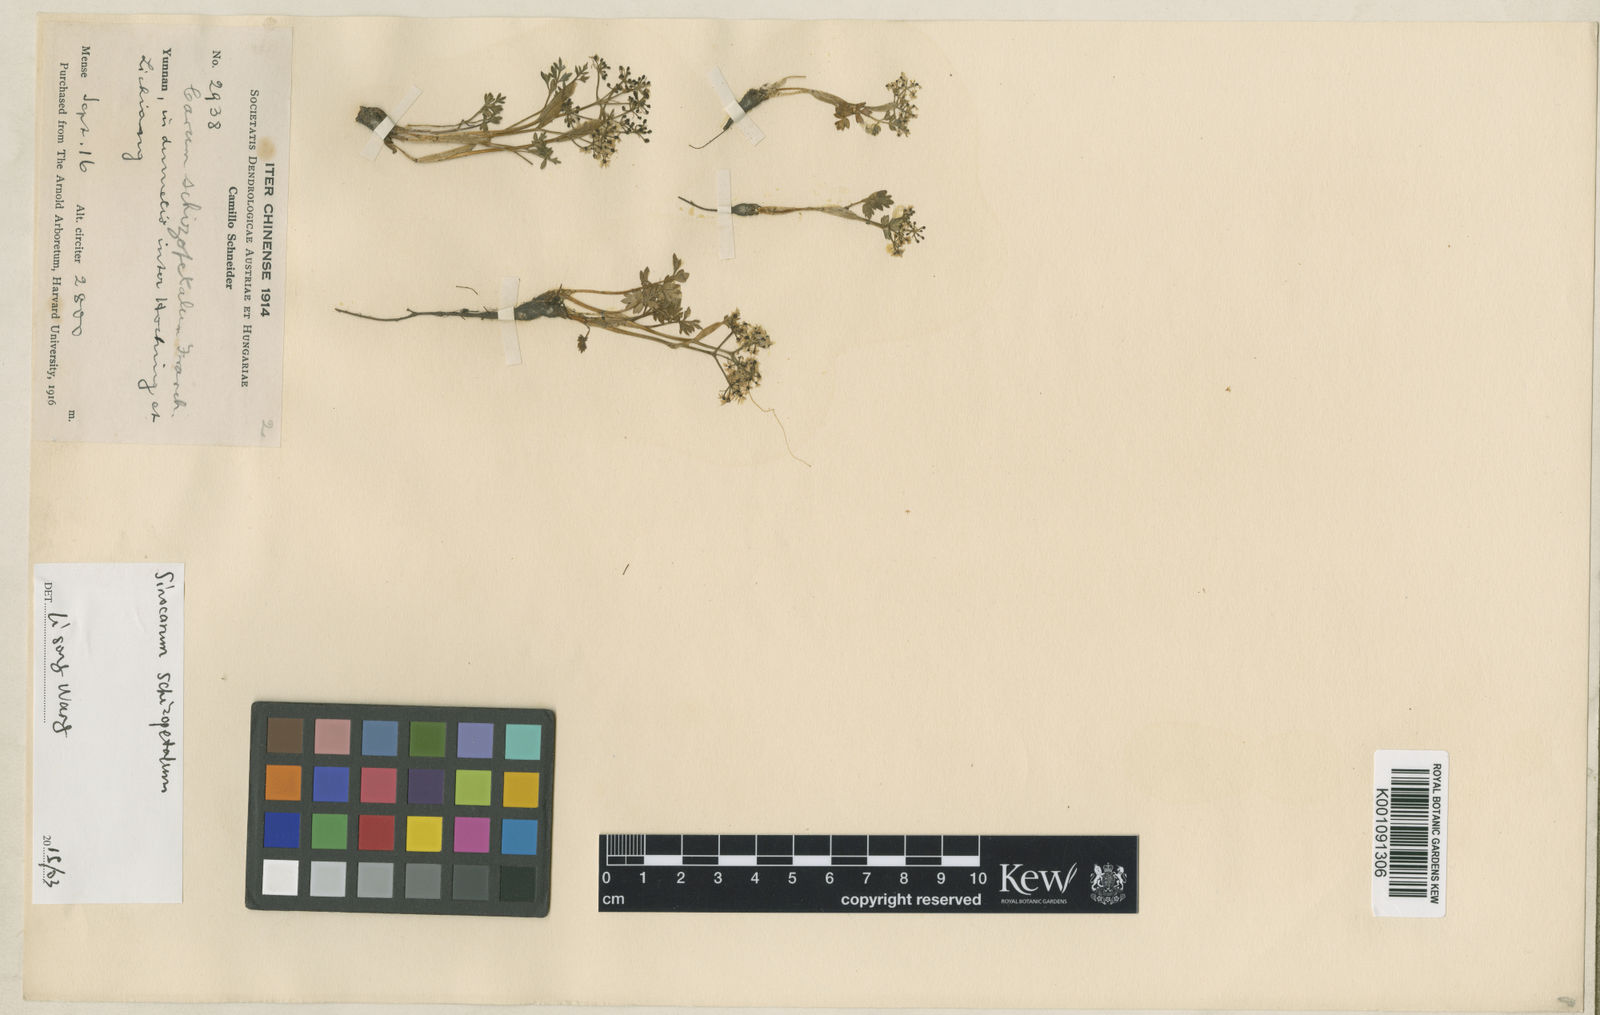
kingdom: Plantae
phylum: Tracheophyta
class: Magnoliopsida
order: Apiales
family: Apiaceae
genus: Sinocarum
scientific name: Sinocarum schizopetalum
